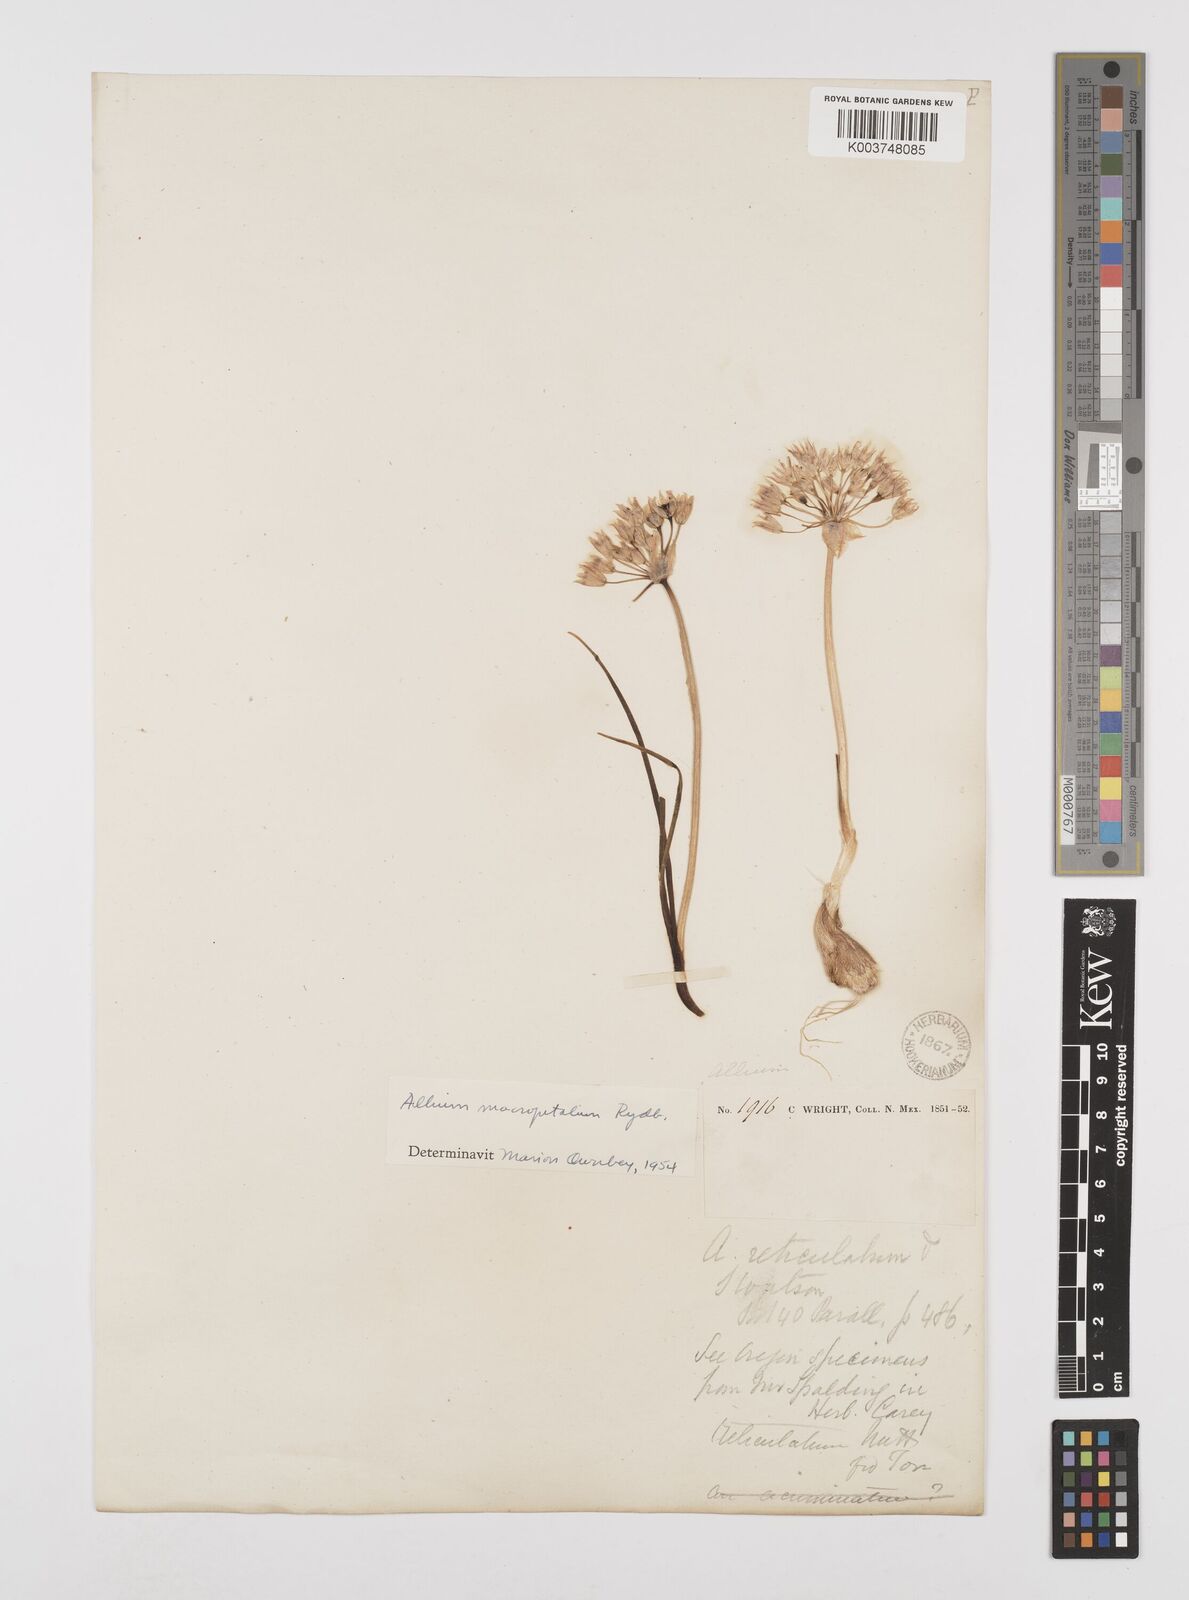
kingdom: Plantae
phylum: Tracheophyta
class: Liliopsida
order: Asparagales
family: Amaryllidaceae
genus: Allium
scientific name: Allium macropetalum
